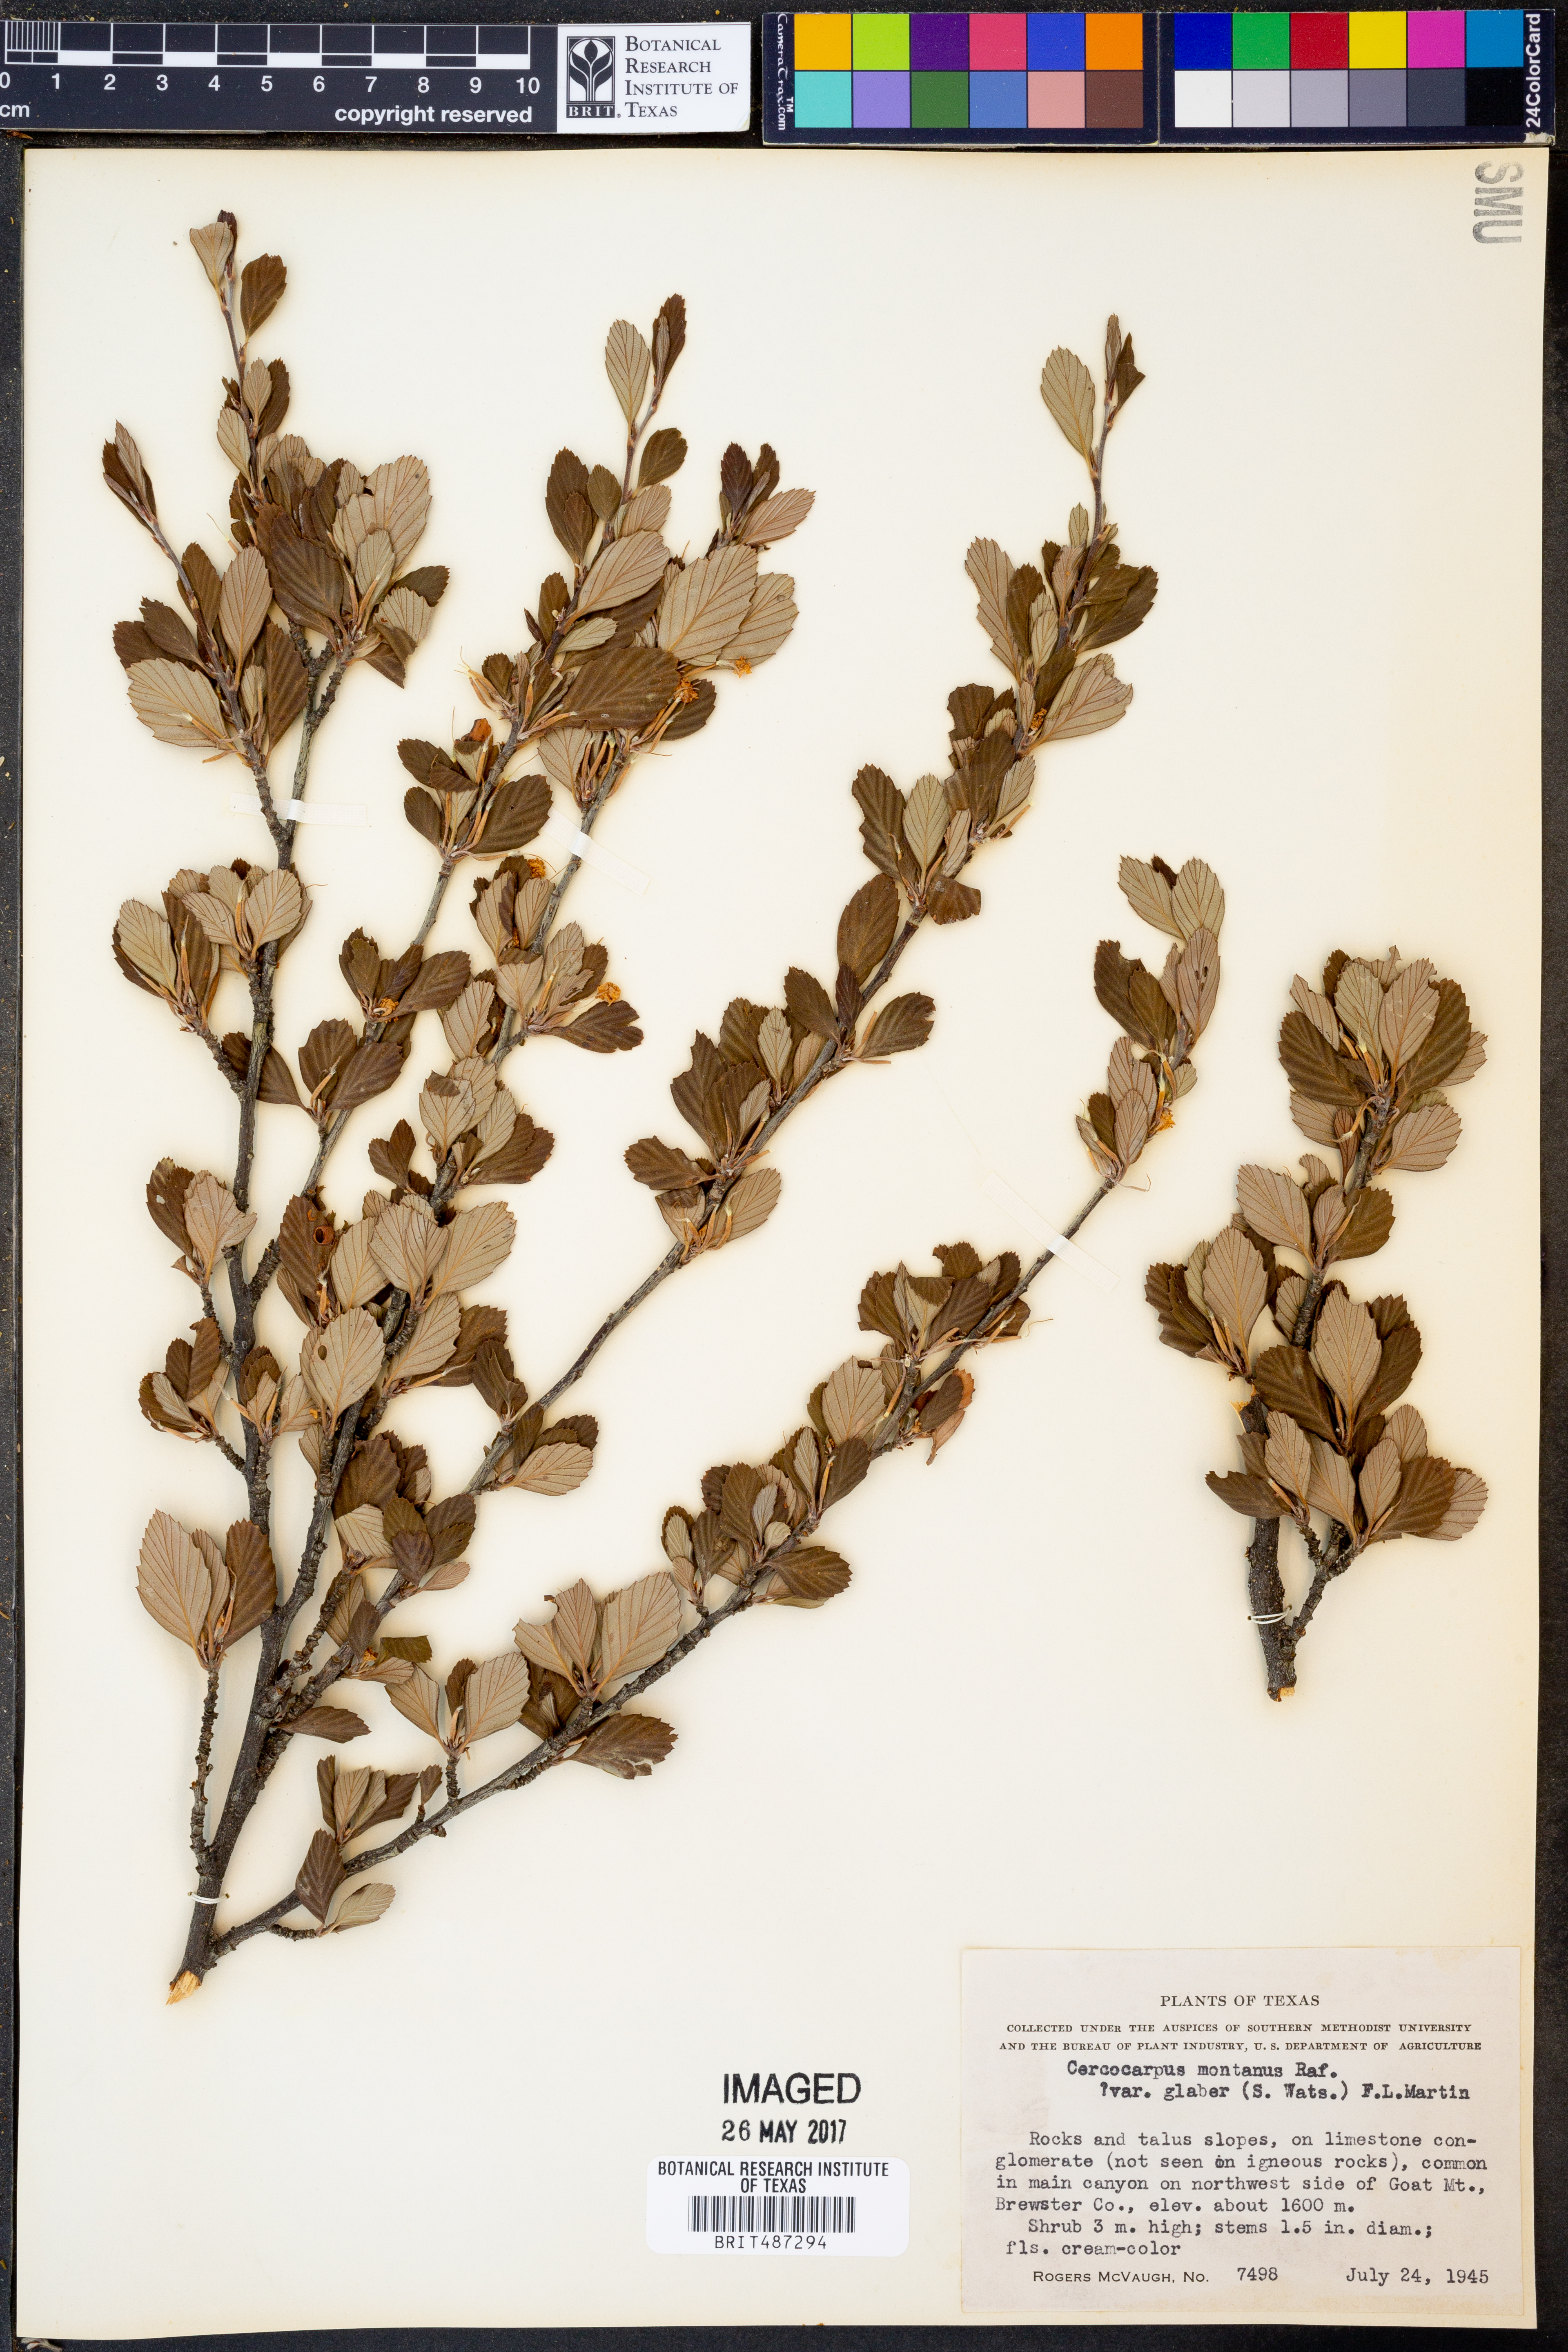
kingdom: Plantae
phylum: Tracheophyta
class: Magnoliopsida
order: Rosales
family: Rosaceae
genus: Cercocarpus
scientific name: Cercocarpus betuloides
